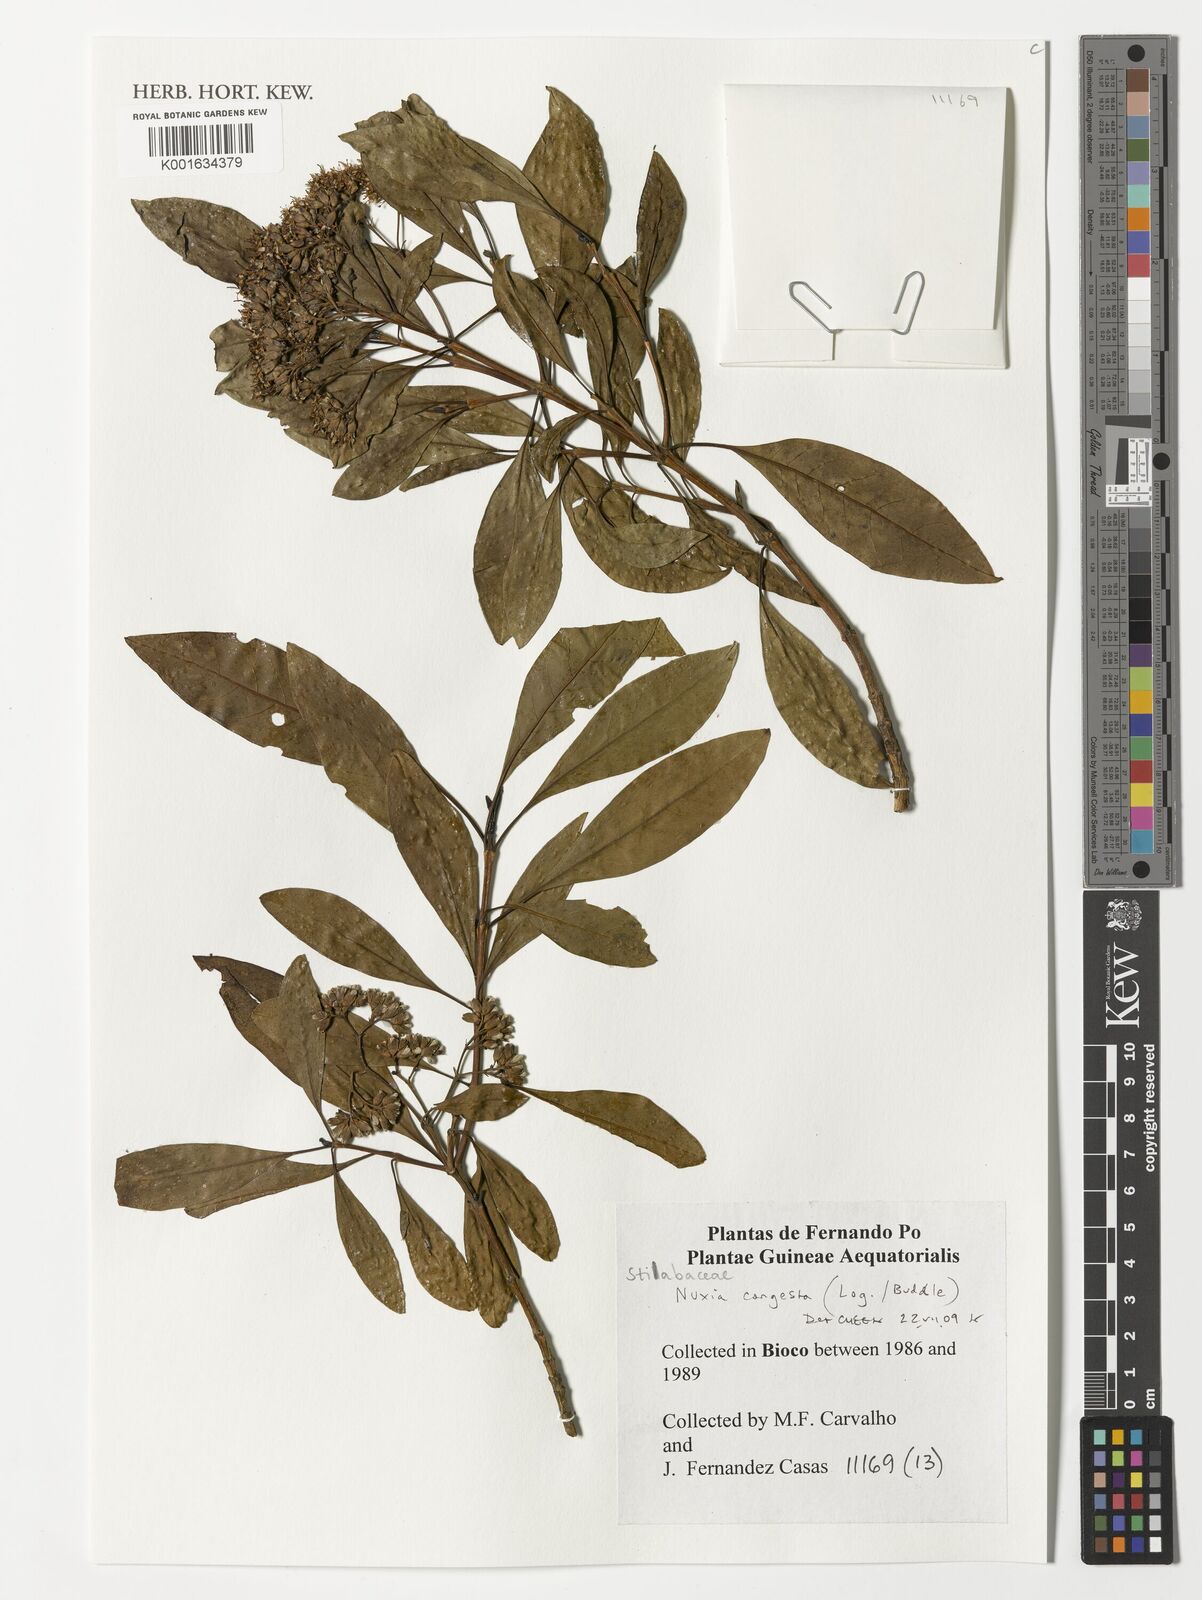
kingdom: Plantae
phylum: Tracheophyta
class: Magnoliopsida
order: Lamiales
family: Stilbaceae
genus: Nuxia
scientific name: Nuxia congesta
